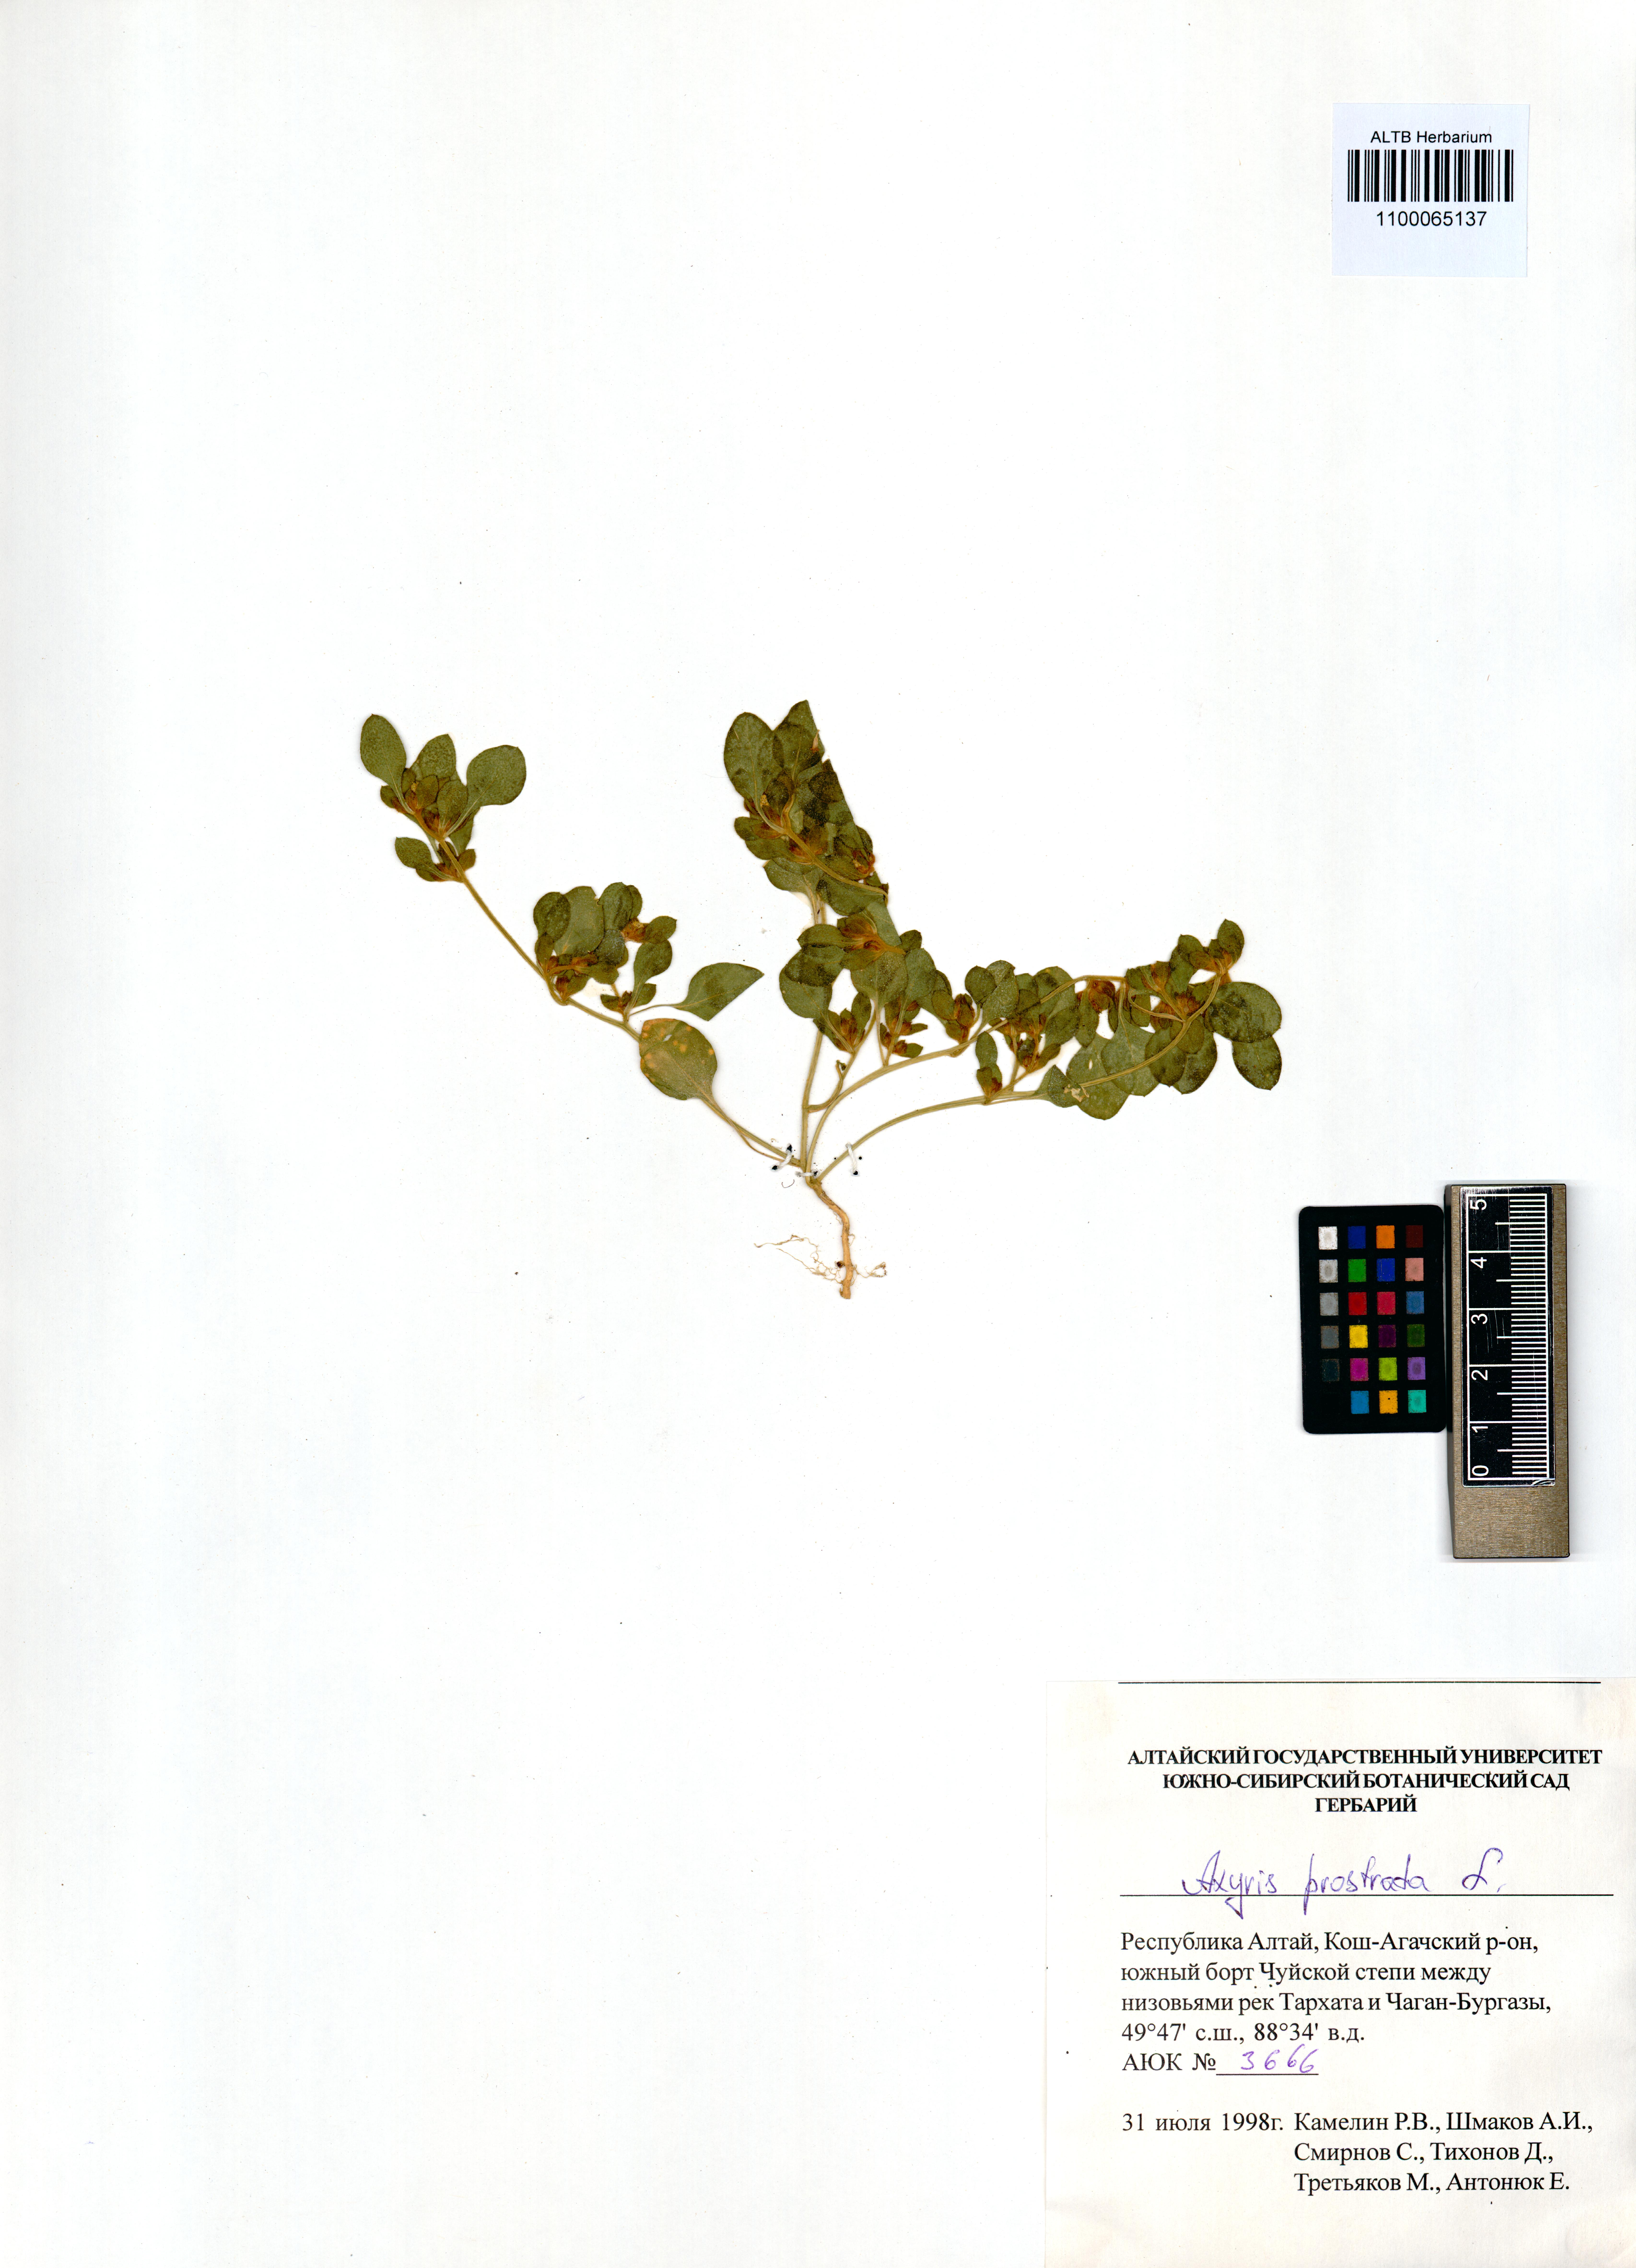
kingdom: Plantae
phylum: Tracheophyta
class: Magnoliopsida
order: Caryophyllales
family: Amaranthaceae
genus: Axyris
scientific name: Axyris prostrata
